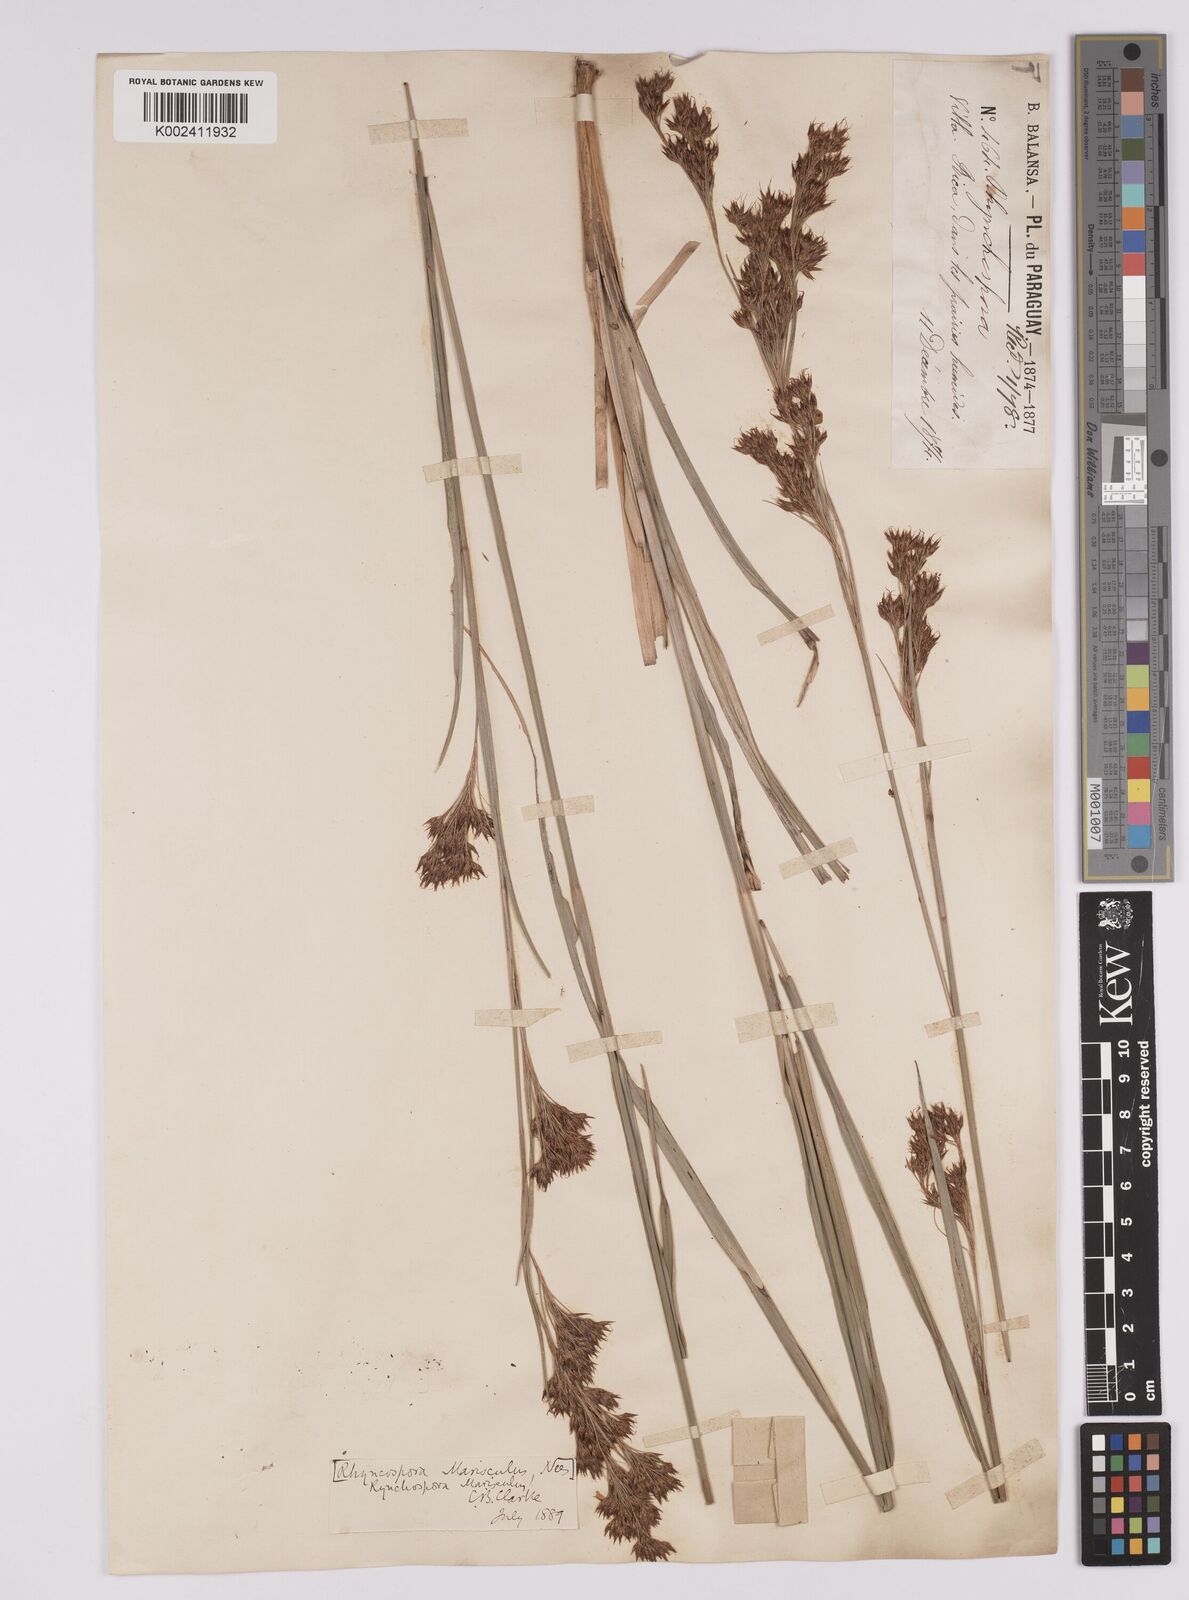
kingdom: Plantae
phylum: Tracheophyta
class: Liliopsida
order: Poales
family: Cyperaceae
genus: Rhynchospora
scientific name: Rhynchospora marisculus
